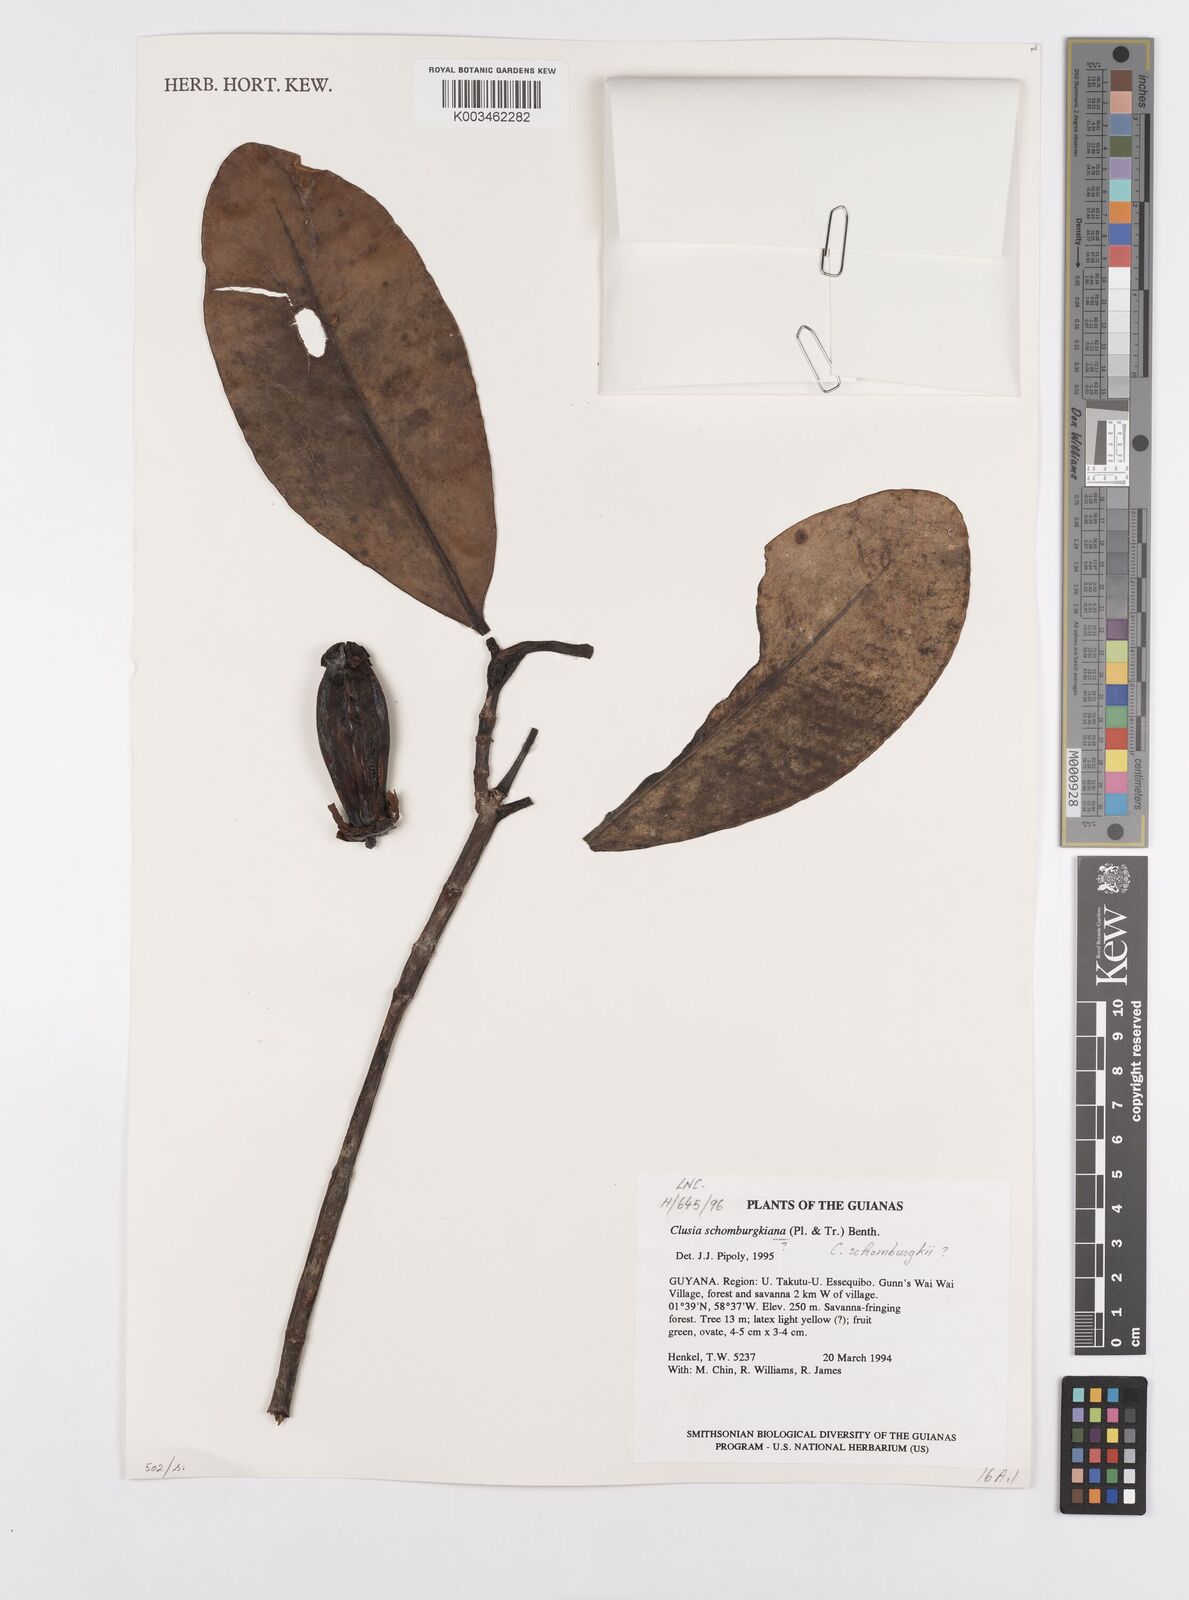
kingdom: Plantae
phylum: Tracheophyta
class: Magnoliopsida
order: Malpighiales
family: Clusiaceae
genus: Clusia
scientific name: Clusia schomburgkiana
